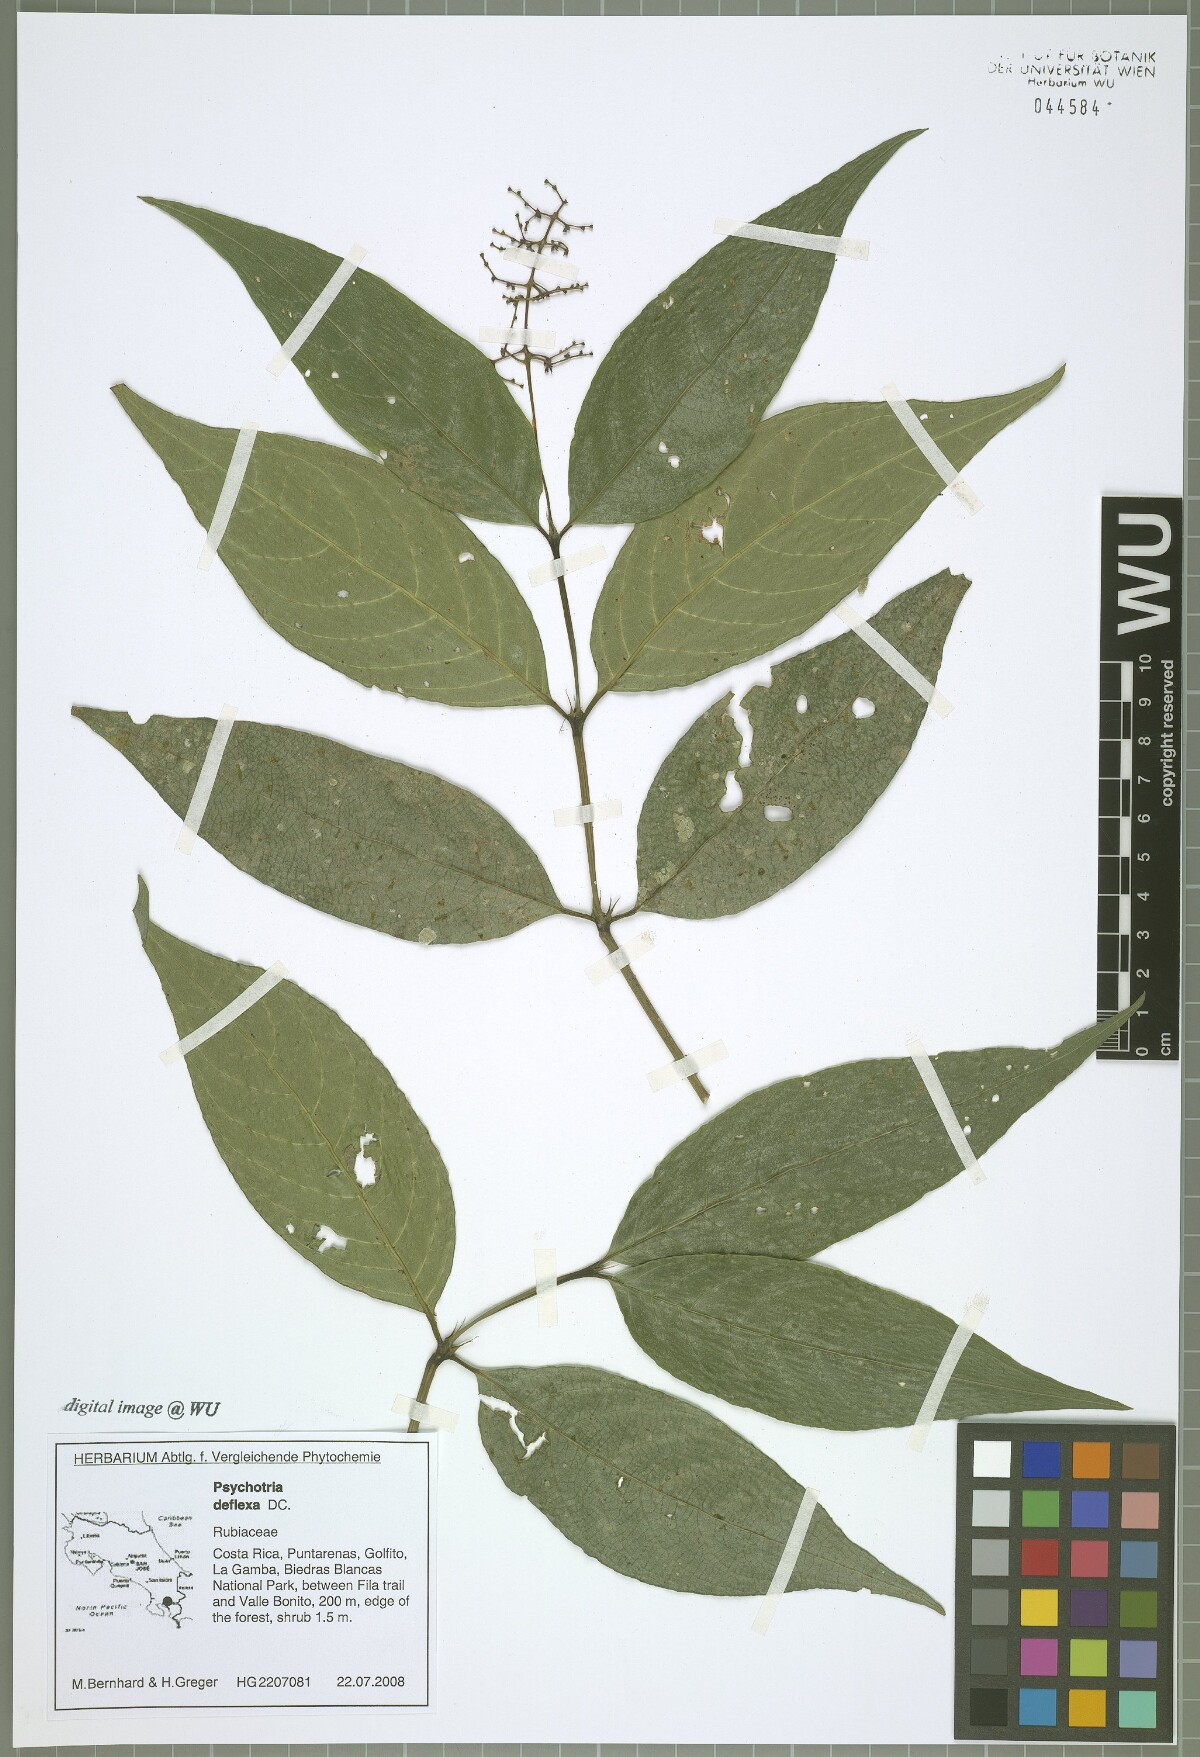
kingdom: Plantae
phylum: Tracheophyta
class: Magnoliopsida
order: Gentianales
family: Rubiaceae
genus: Palicourea
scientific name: Palicourea deflexa
